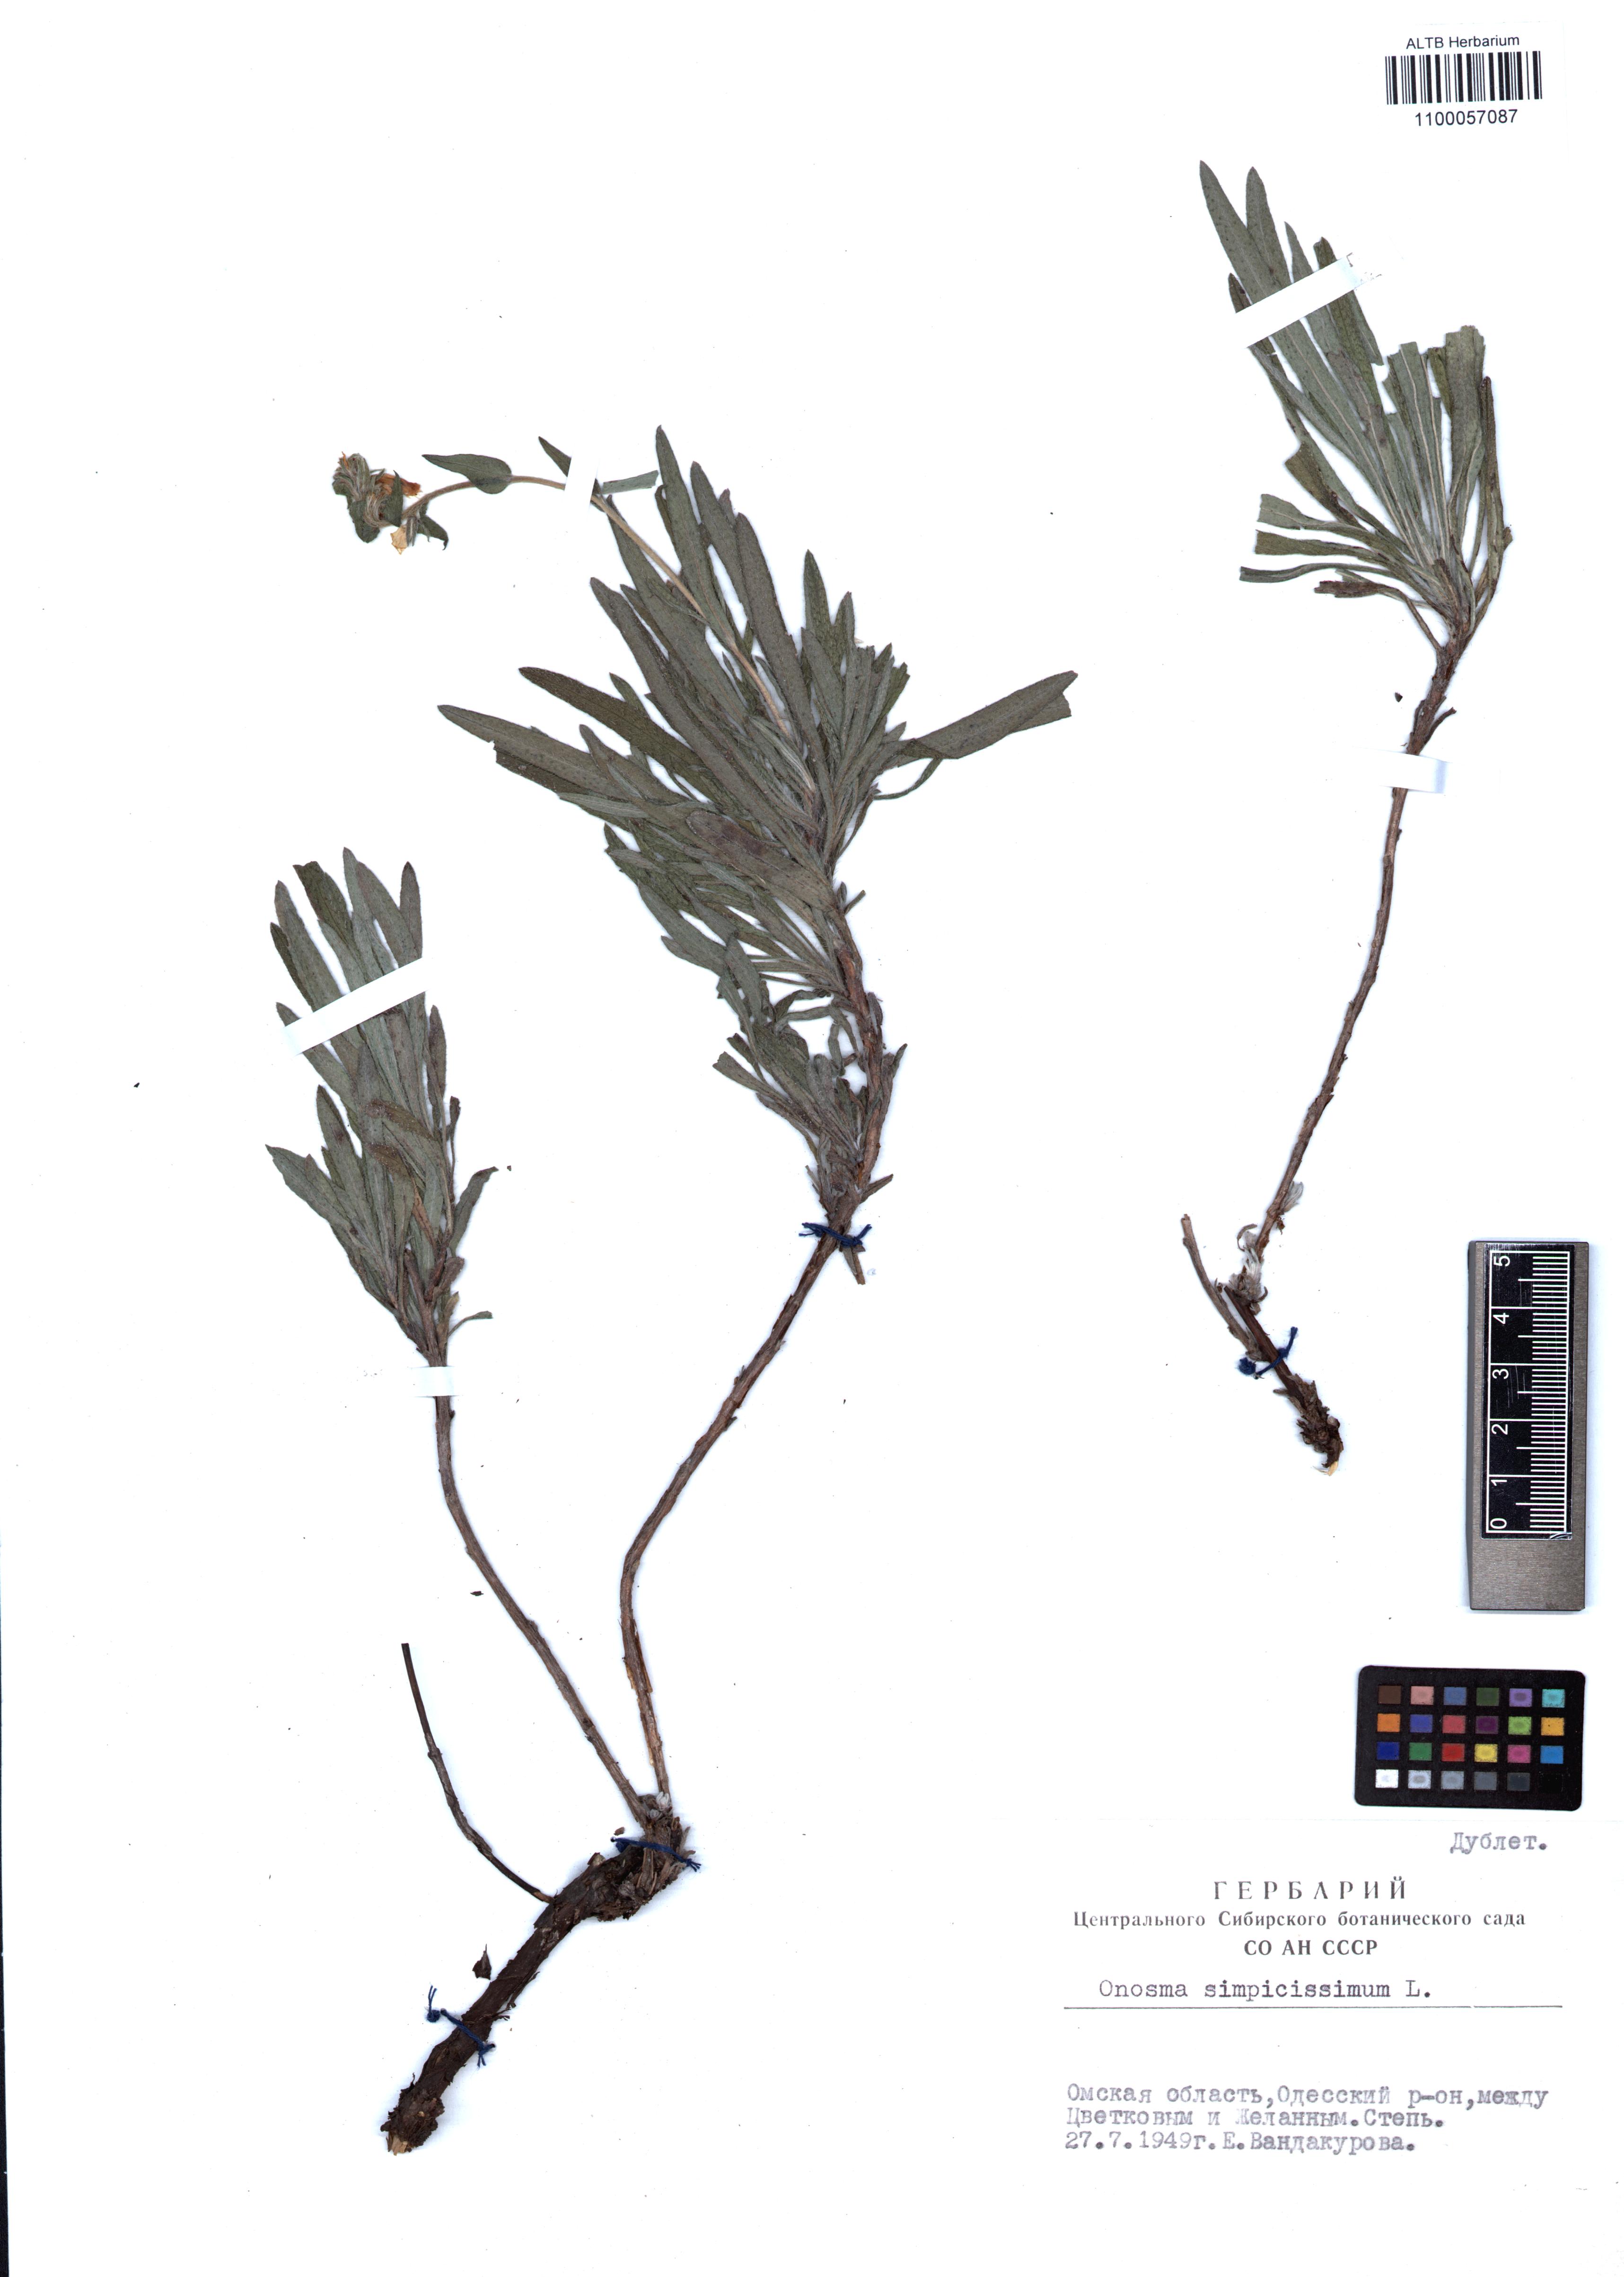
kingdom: Plantae
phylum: Tracheophyta
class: Magnoliopsida
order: Boraginales
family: Boraginaceae
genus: Onosma
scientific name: Onosma simplicissima
